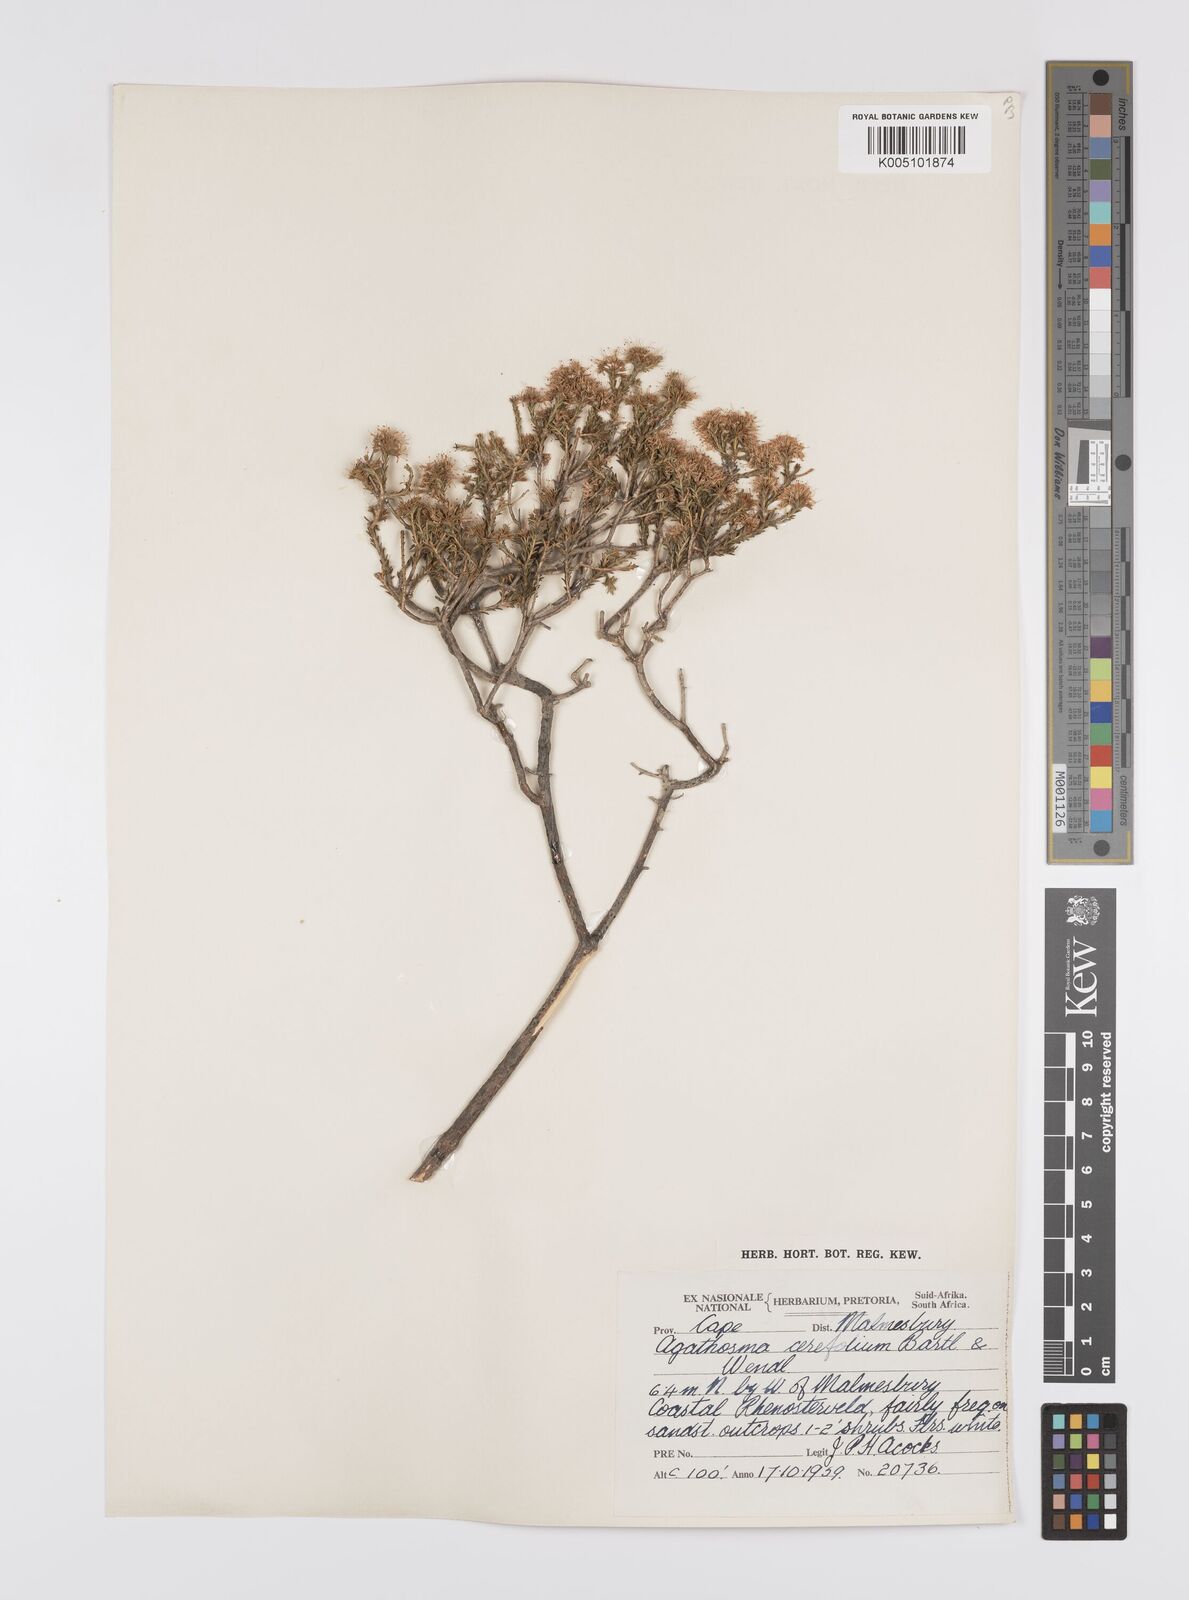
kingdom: Plantae
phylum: Tracheophyta
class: Magnoliopsida
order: Sapindales
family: Rutaceae
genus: Agathosma
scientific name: Agathosma cerefolia
